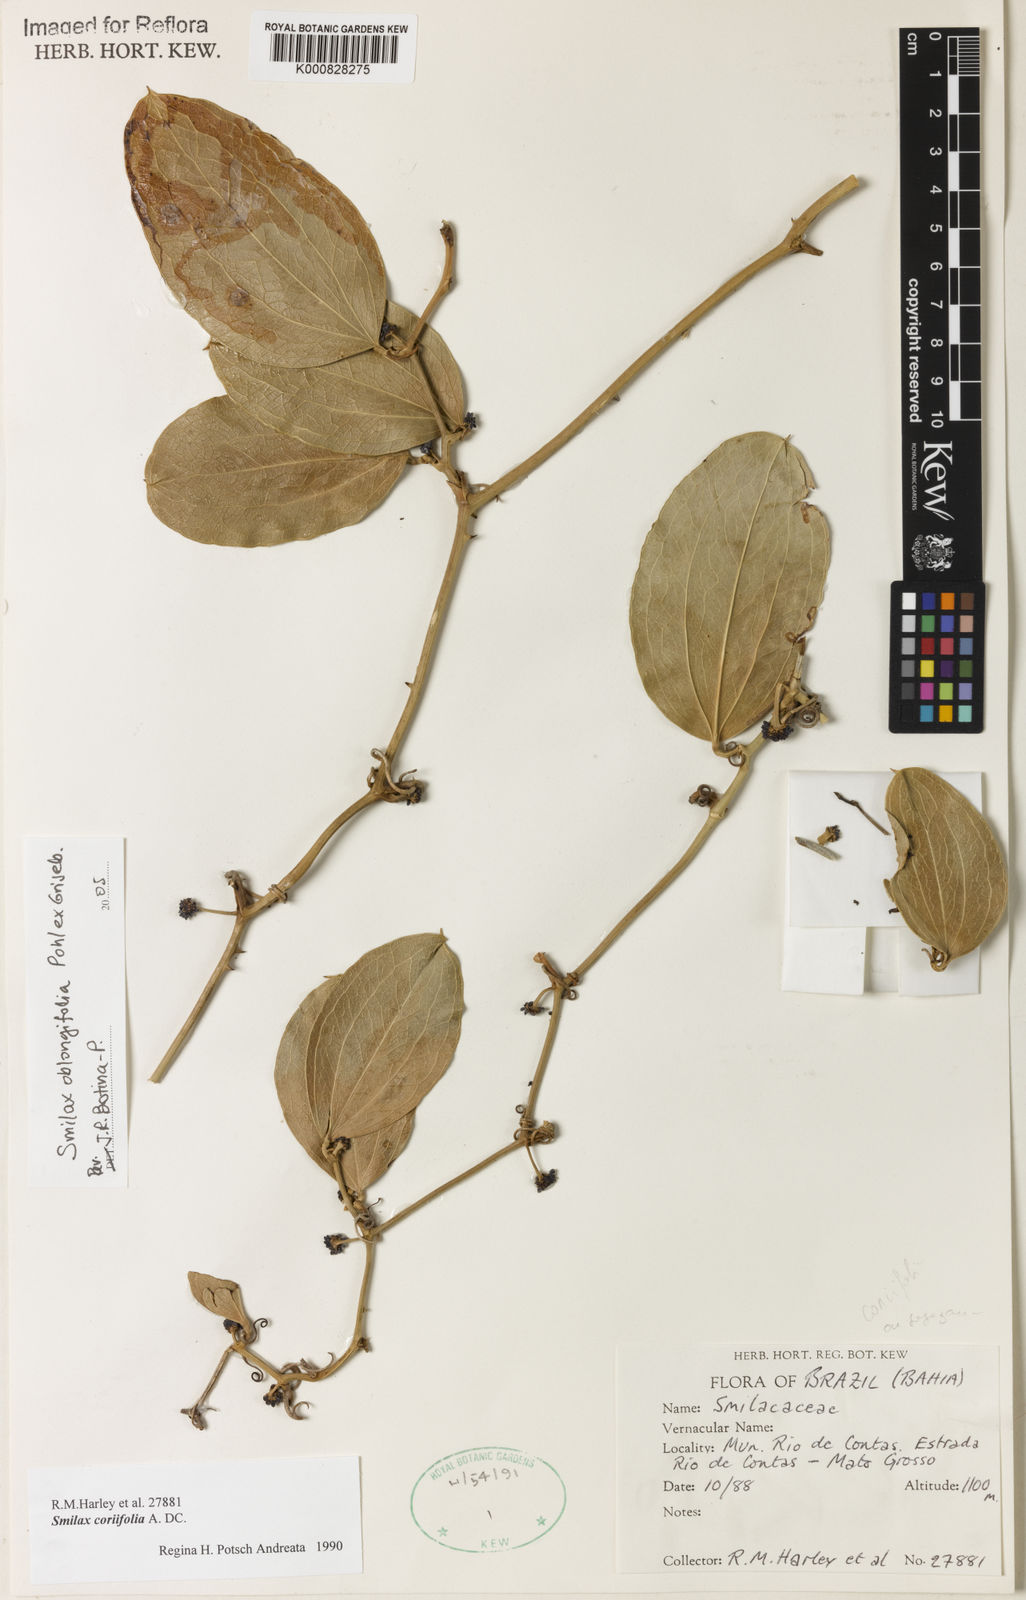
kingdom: Plantae
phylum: Tracheophyta
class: Liliopsida
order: Liliales
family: Smilacaceae
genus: Smilax
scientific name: Smilax oblongifolia
